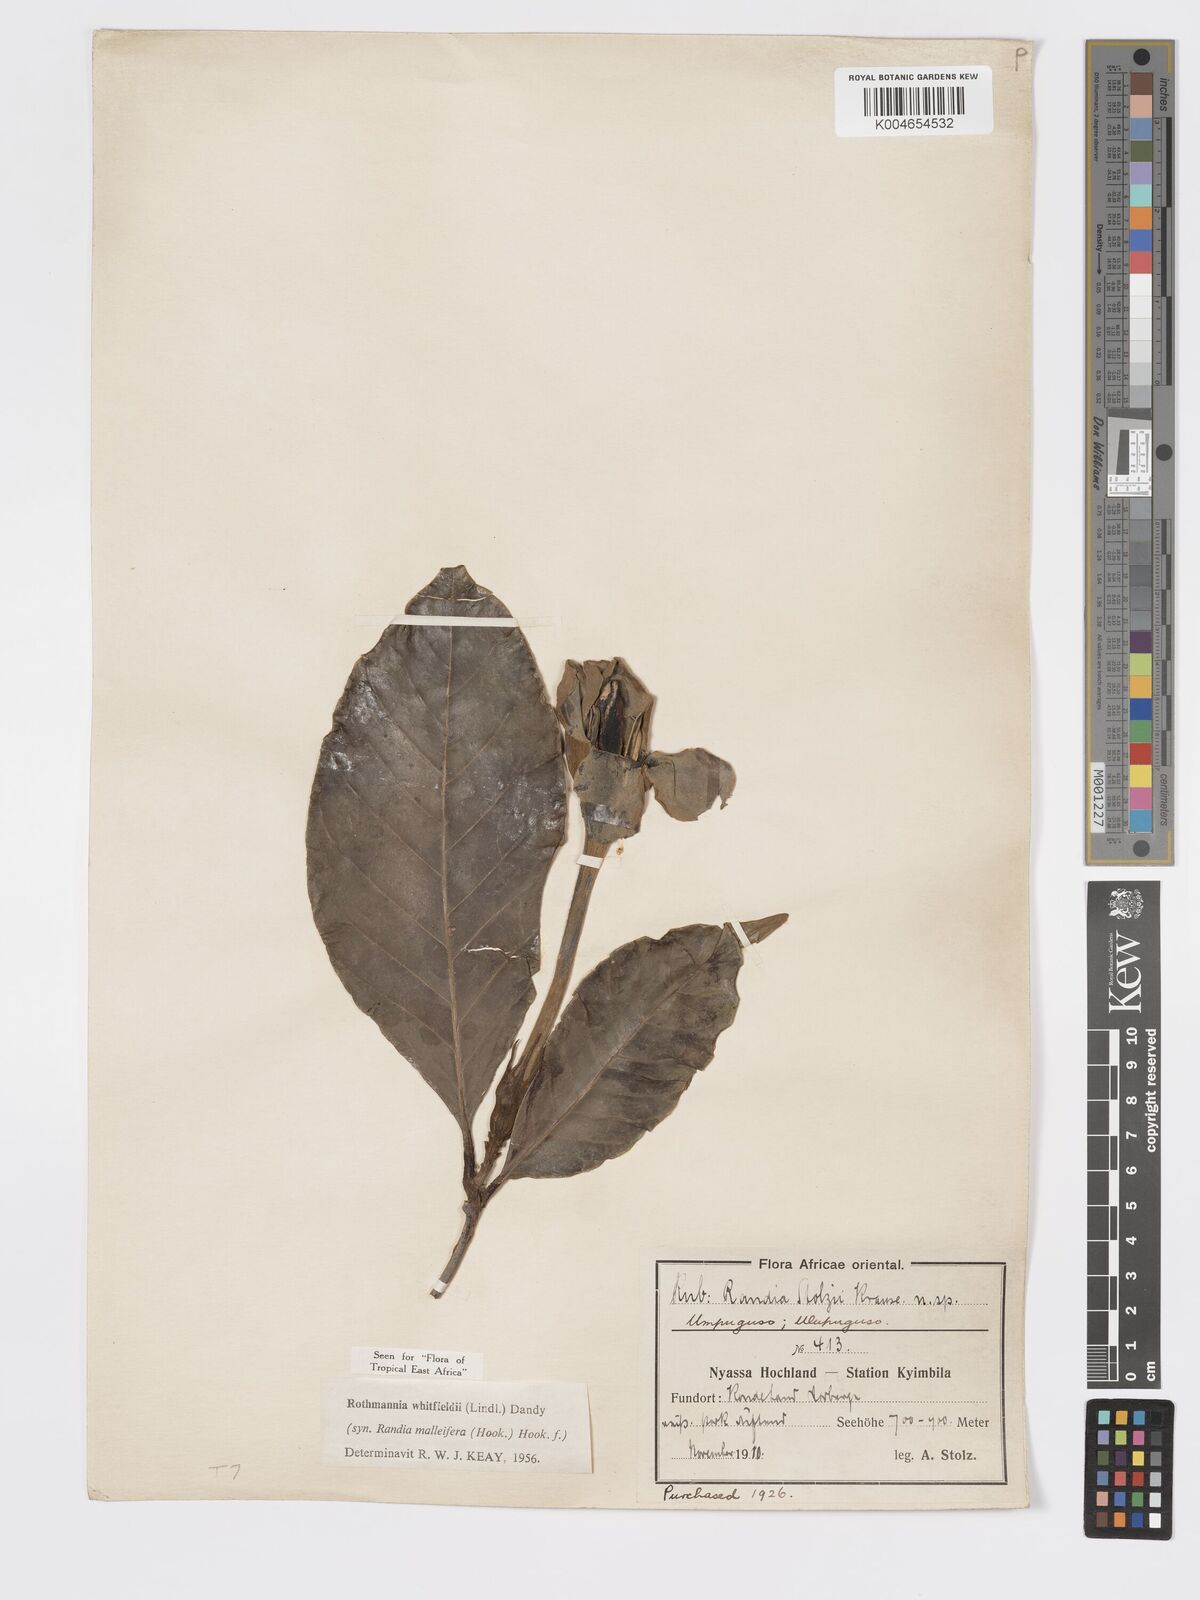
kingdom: Plantae
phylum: Tracheophyta
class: Magnoliopsida
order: Gentianales
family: Rubiaceae
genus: Rothmannia
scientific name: Rothmannia whitfieldii
